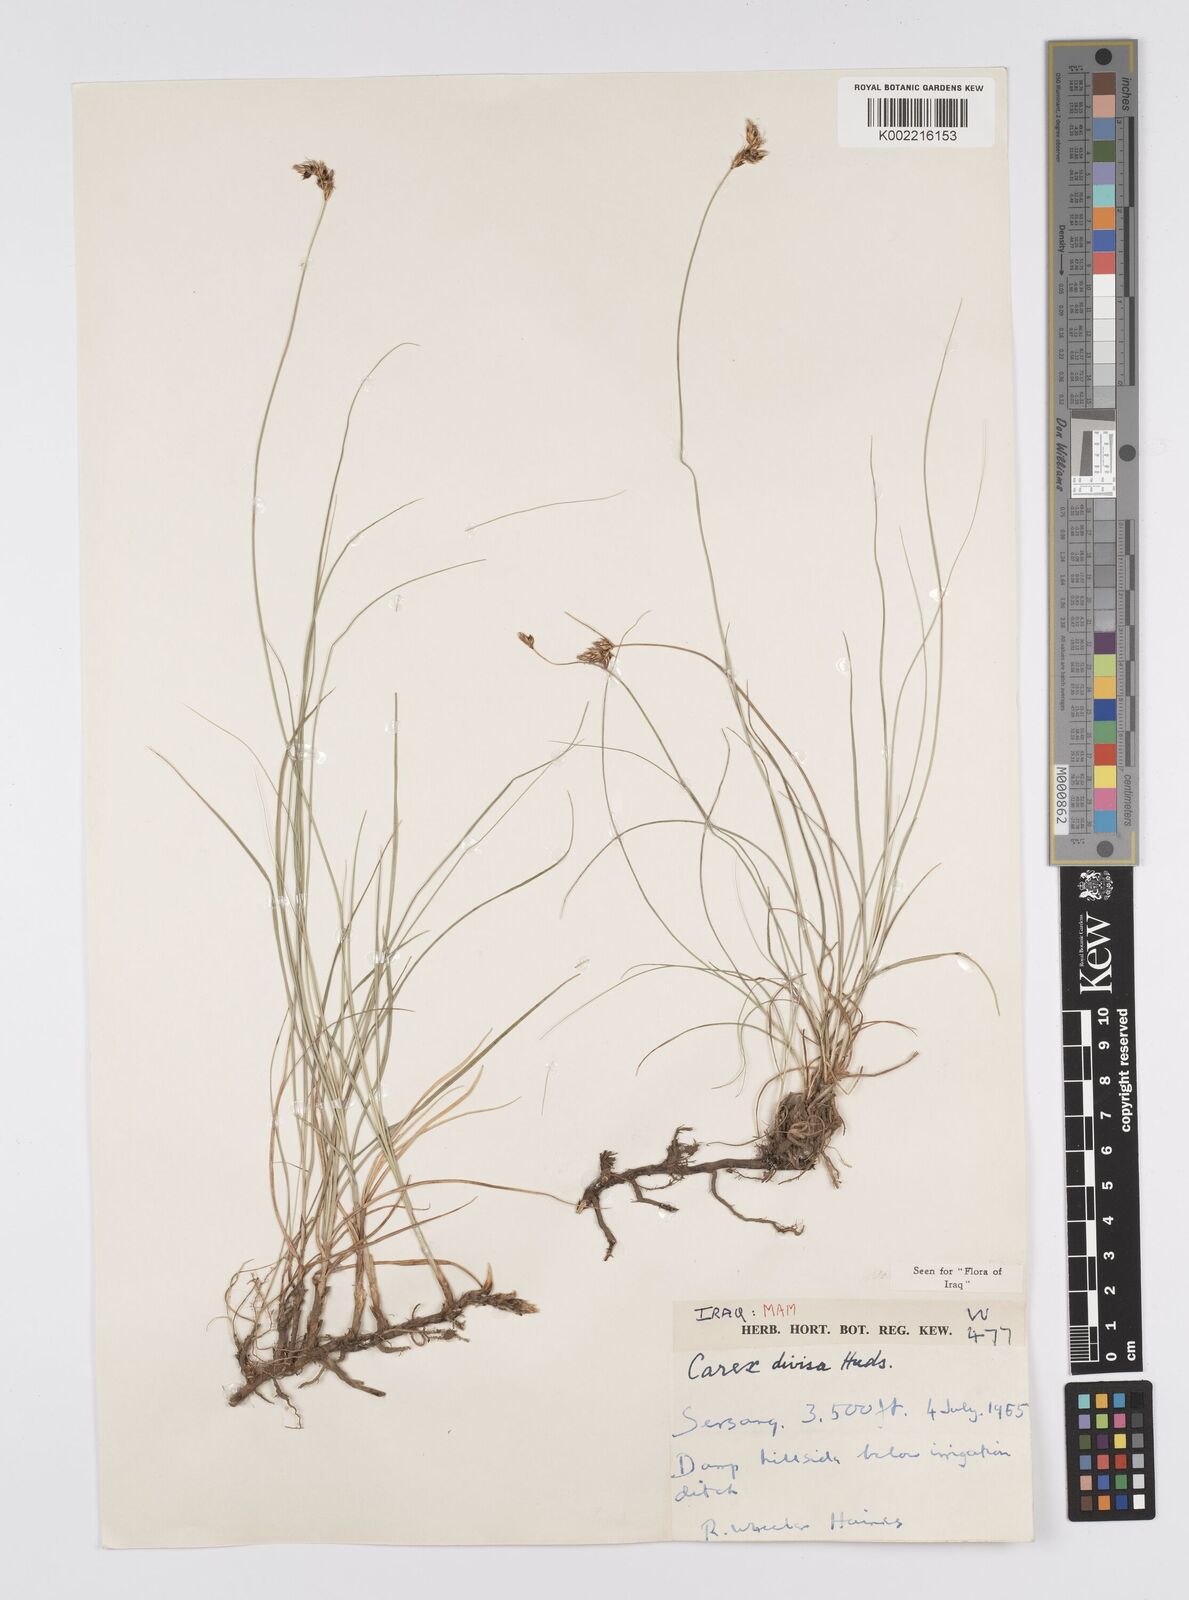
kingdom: Plantae
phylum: Tracheophyta
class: Liliopsida
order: Poales
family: Cyperaceae
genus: Carex
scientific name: Carex divisa
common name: Divided sedge
